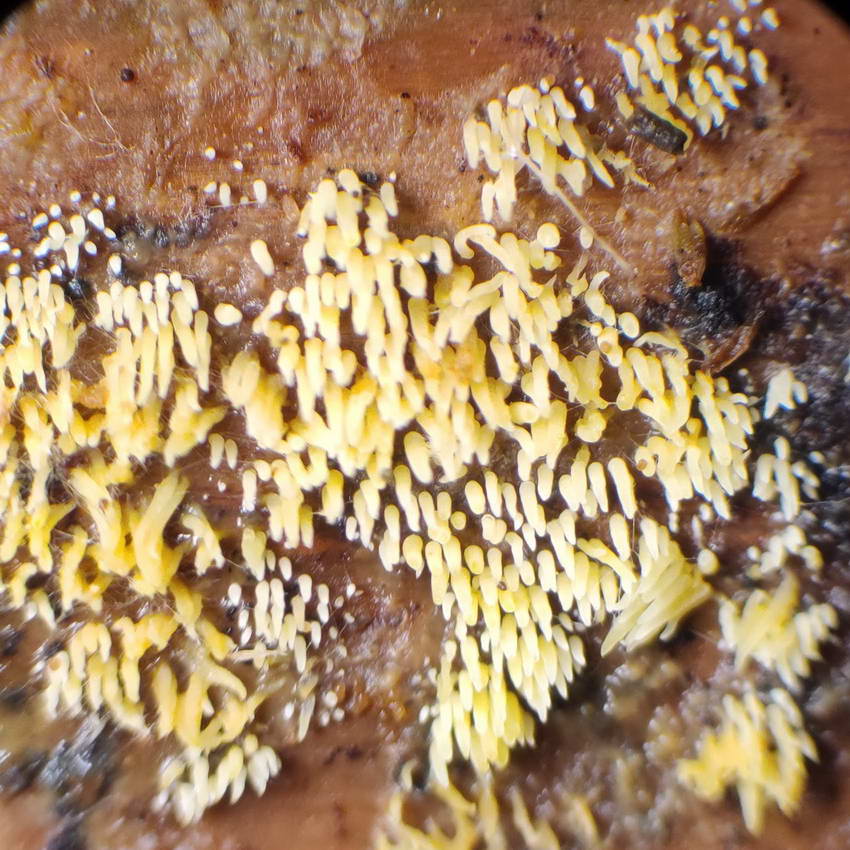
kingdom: Fungi
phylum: Basidiomycota
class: Agaricomycetes
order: Agaricales
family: Clavariaceae
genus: Mucronella
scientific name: Mucronella flava
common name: gul hængepig
